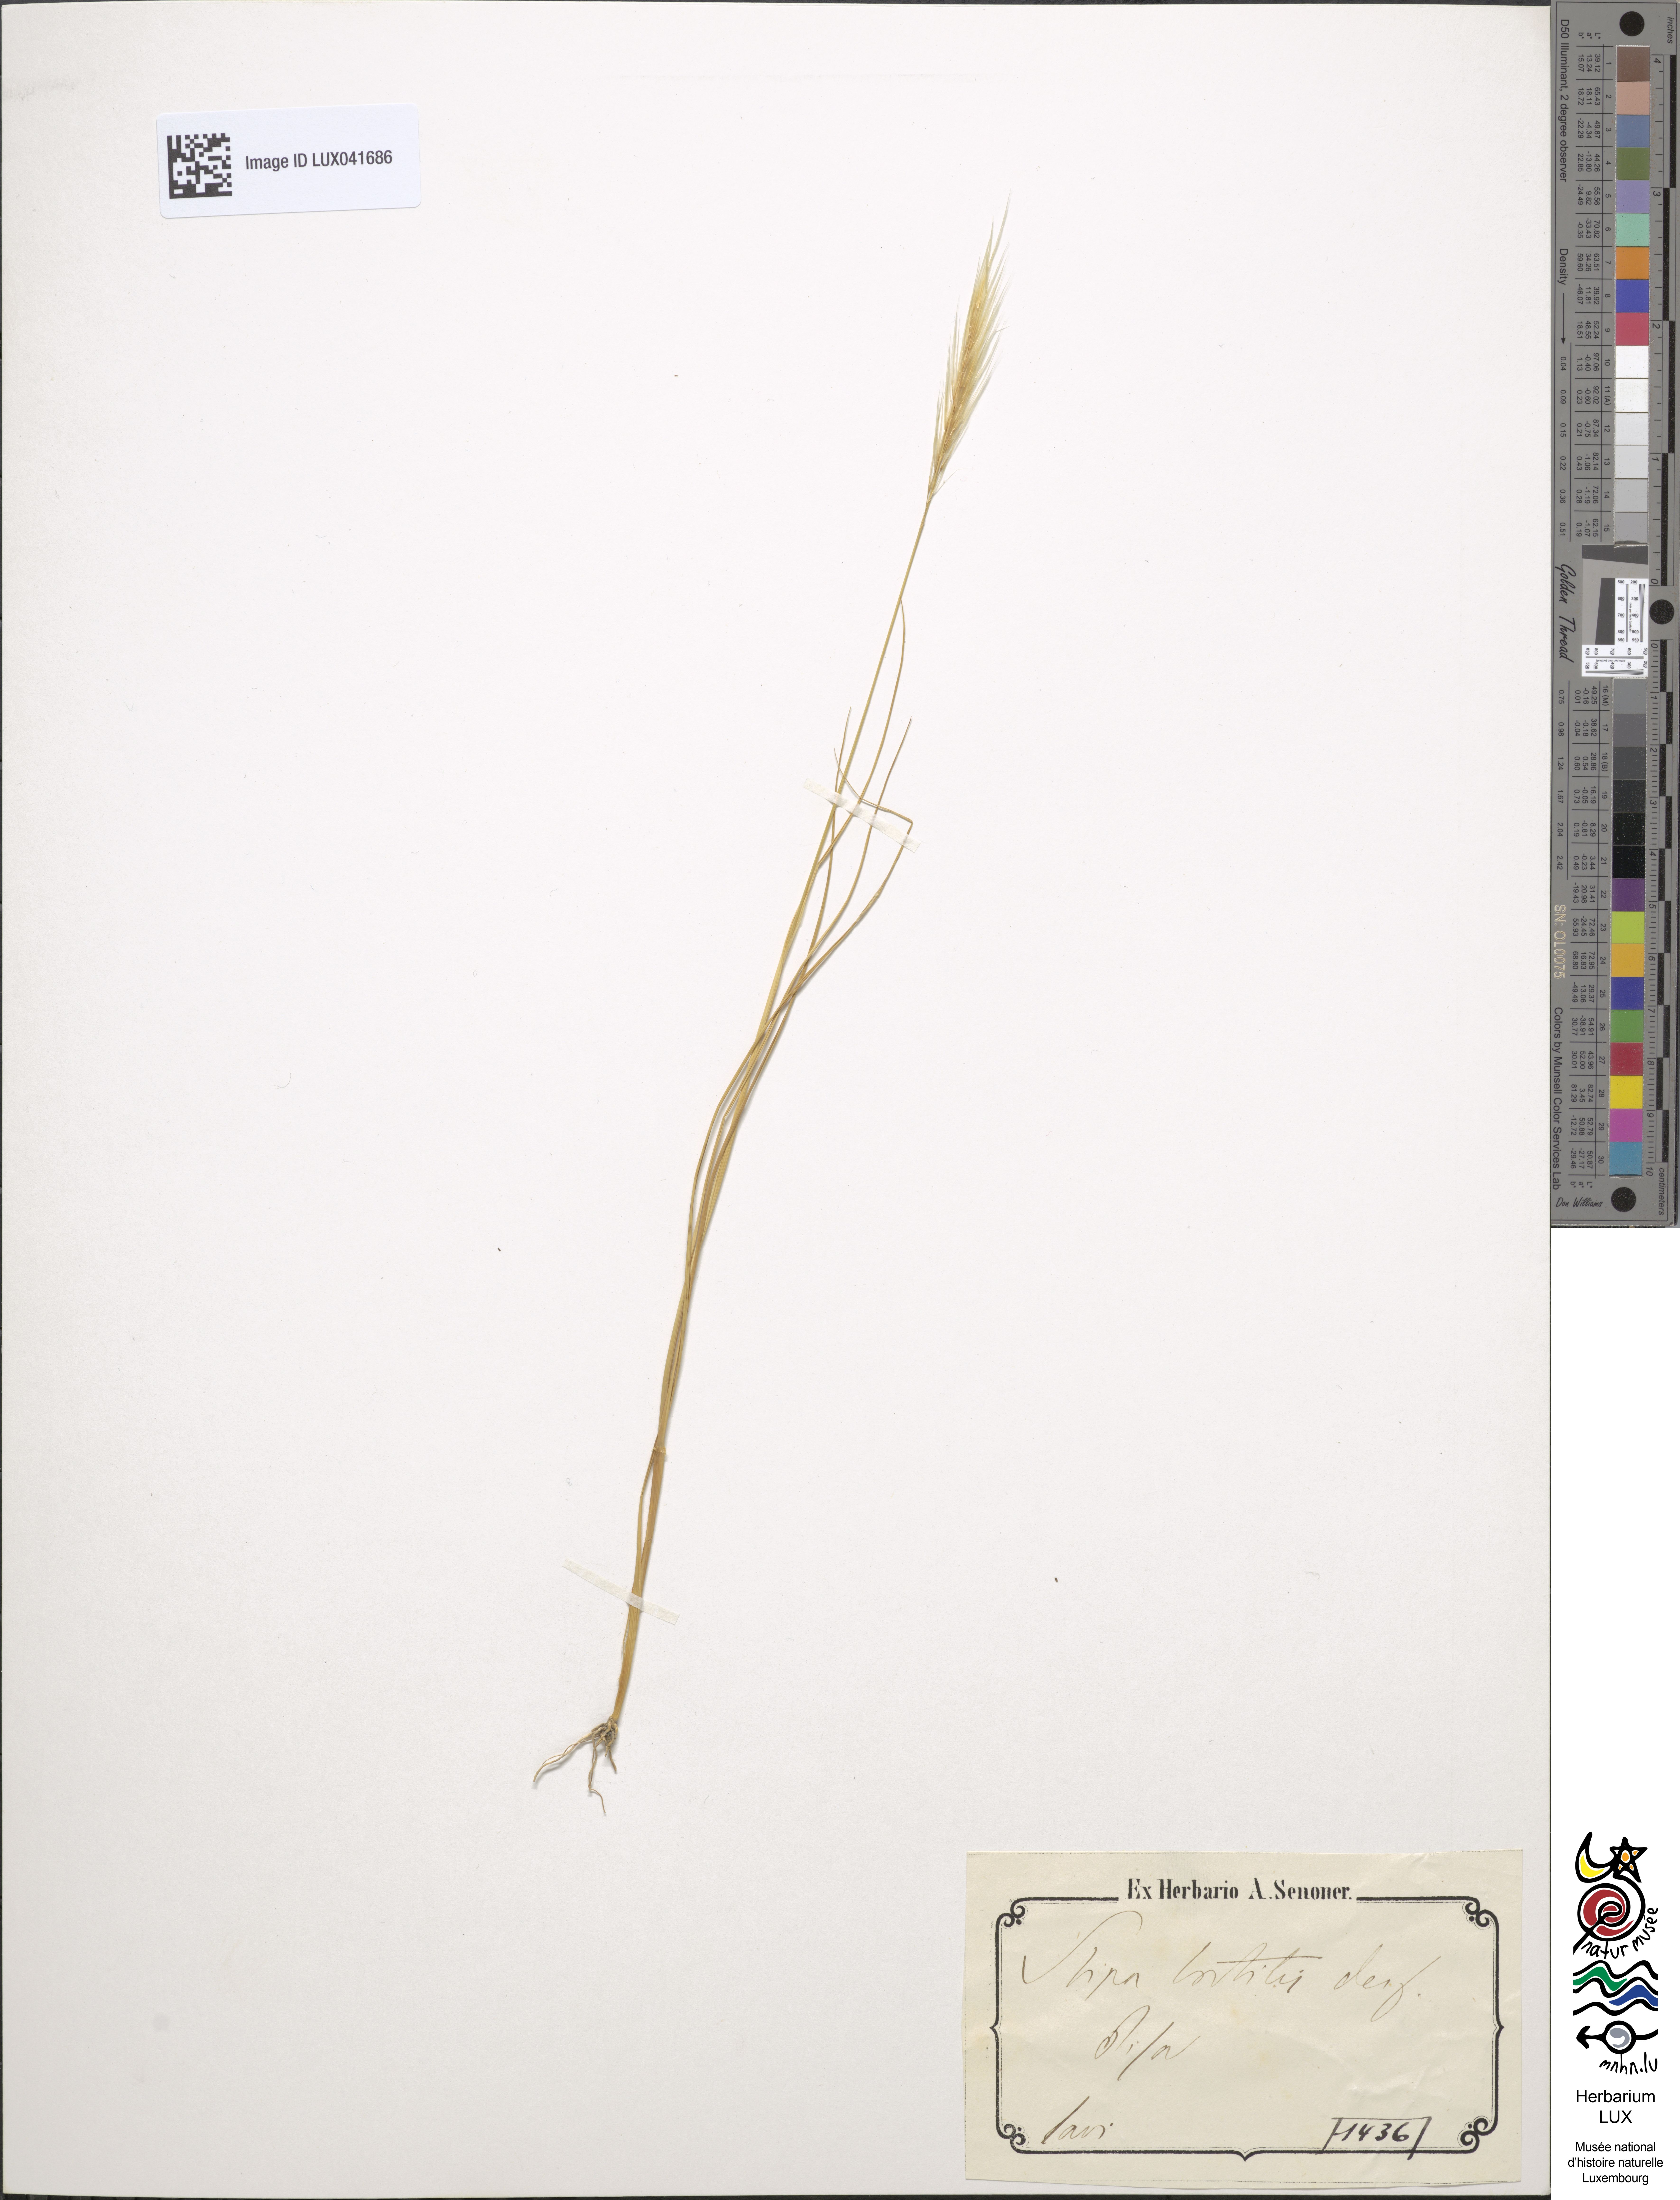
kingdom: Plantae
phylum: Tracheophyta
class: Liliopsida
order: Poales
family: Poaceae
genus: Stipellula
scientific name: Stipellula capensis
